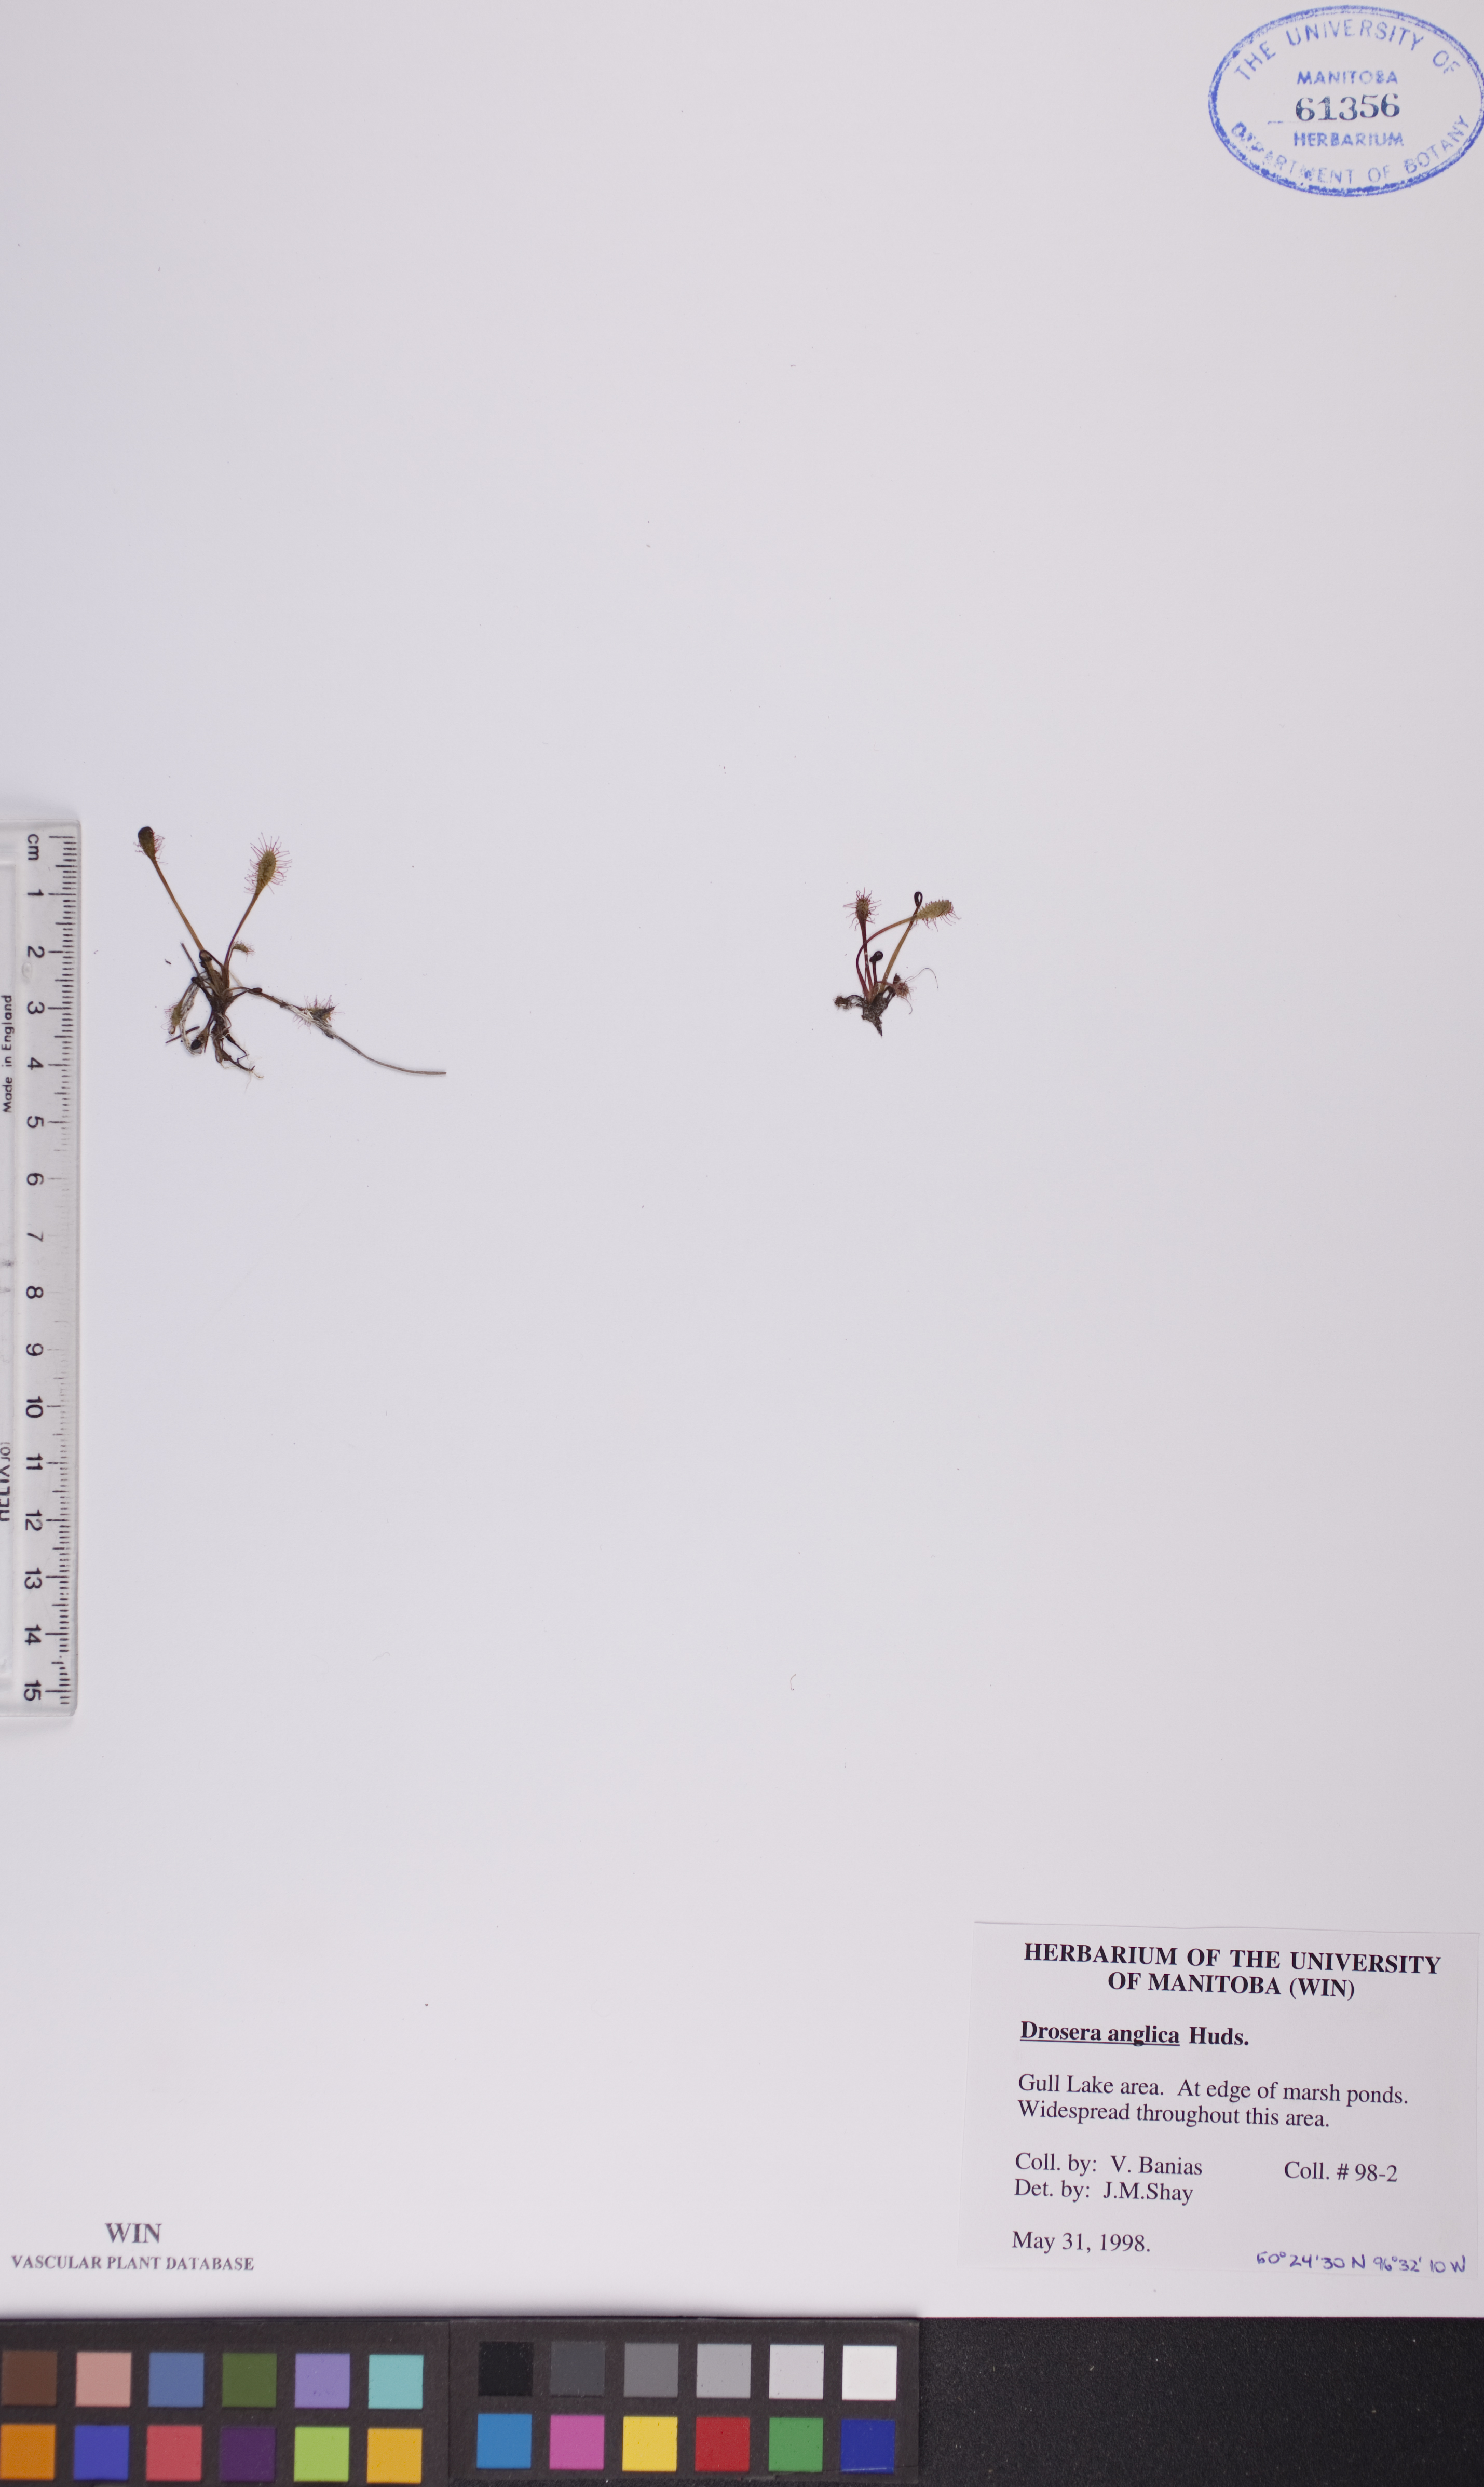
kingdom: Plantae
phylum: Tracheophyta
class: Magnoliopsida
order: Caryophyllales
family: Droseraceae
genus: Drosera
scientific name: Drosera anglica
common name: Great sundew
